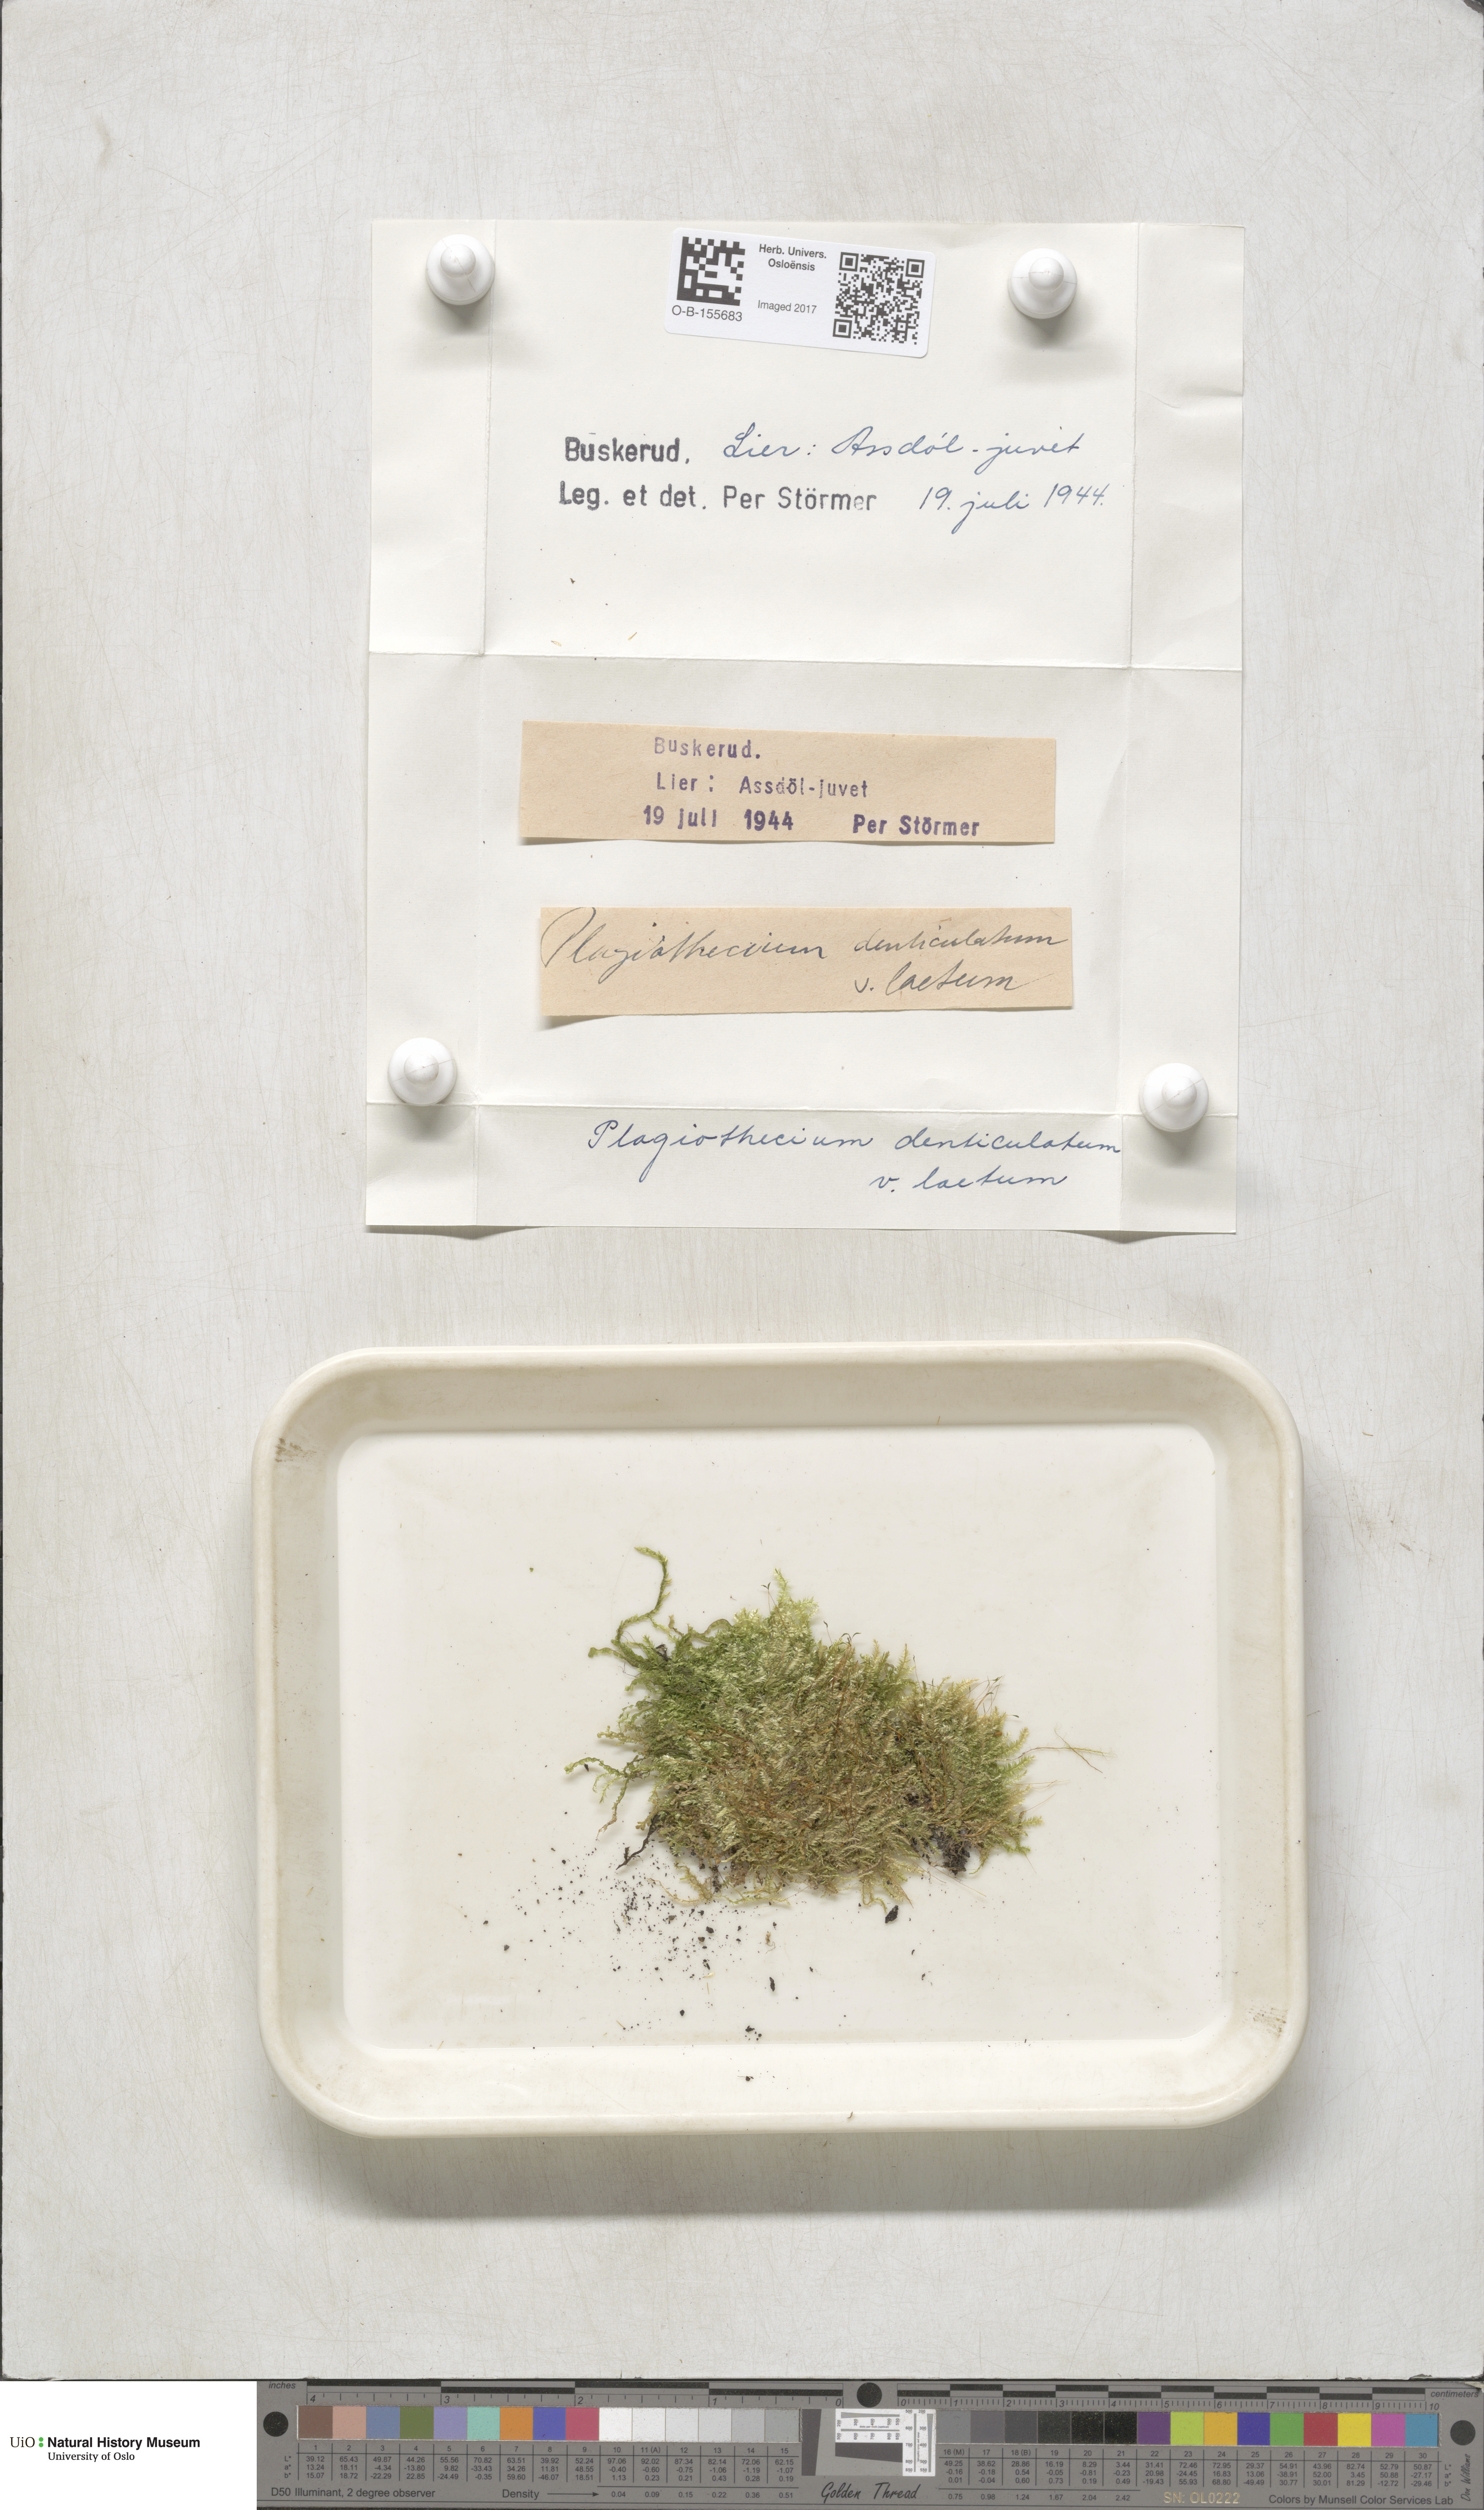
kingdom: Plantae
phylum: Bryophyta
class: Bryopsida
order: Hypnales
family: Plagiotheciaceae
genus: Plagiothecium
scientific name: Plagiothecium laetum
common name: Bright silk moss
